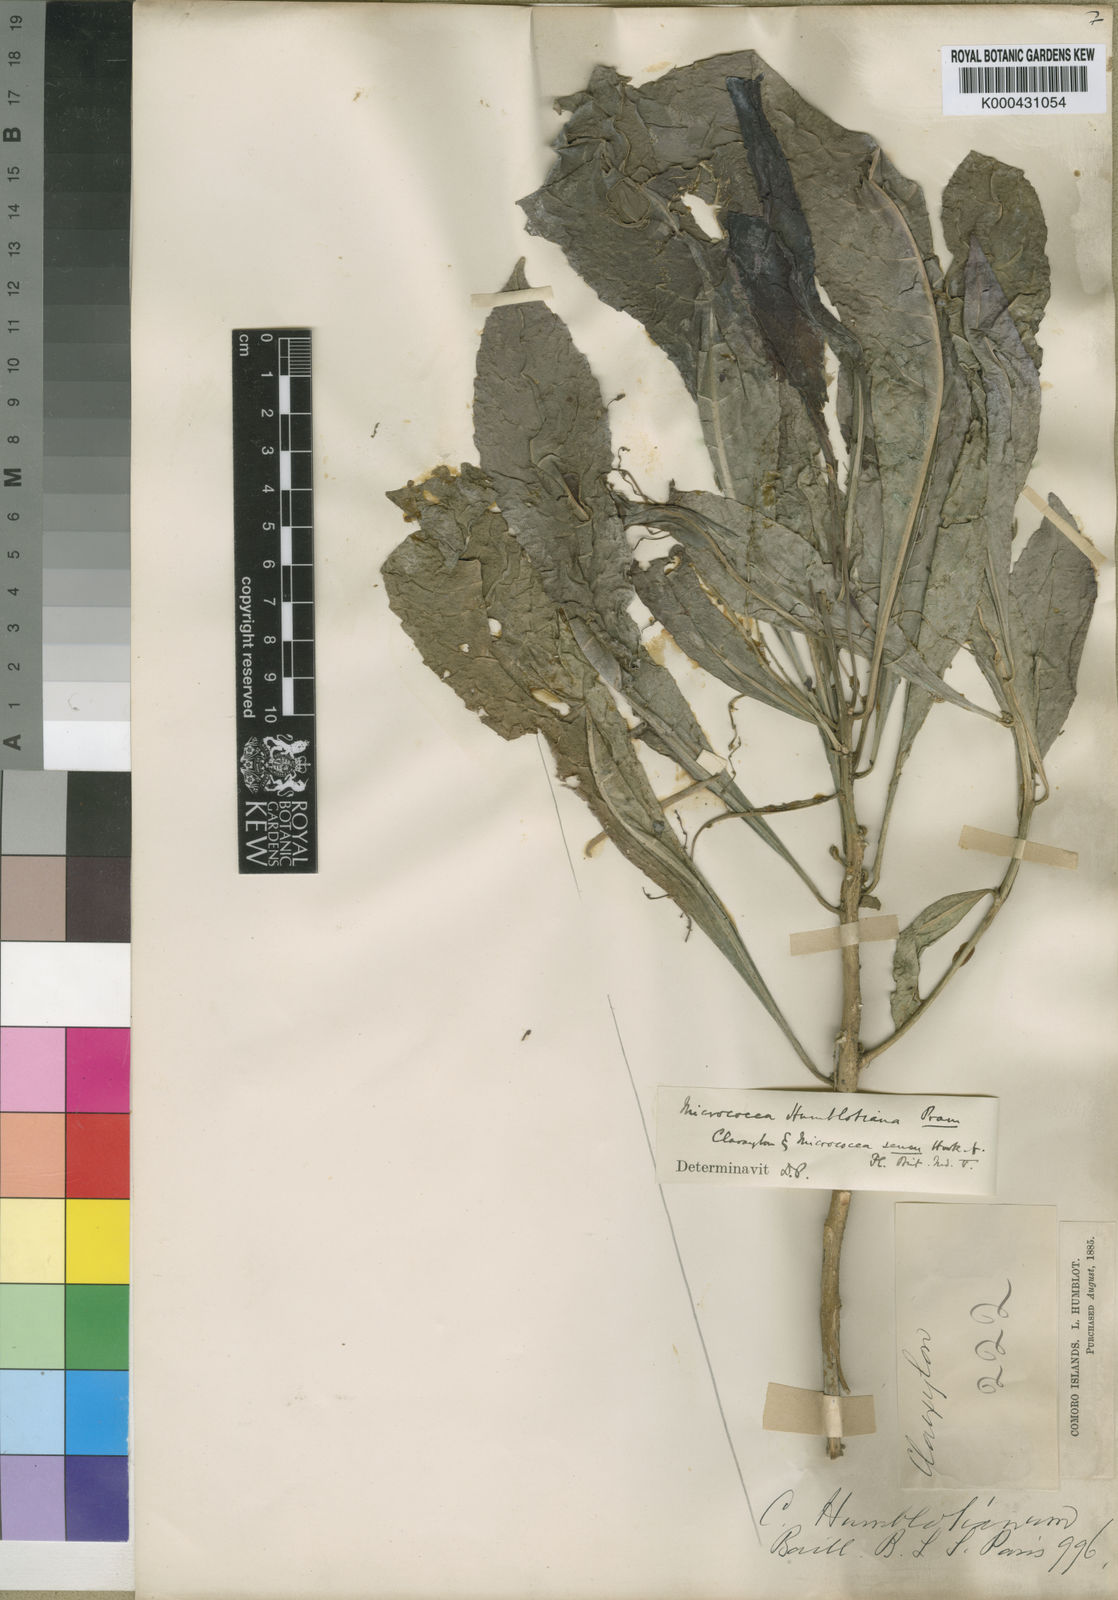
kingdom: Plantae
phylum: Tracheophyta
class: Magnoliopsida
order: Malpighiales
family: Euphorbiaceae
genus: Micrococca
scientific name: Micrococca humblotiana
